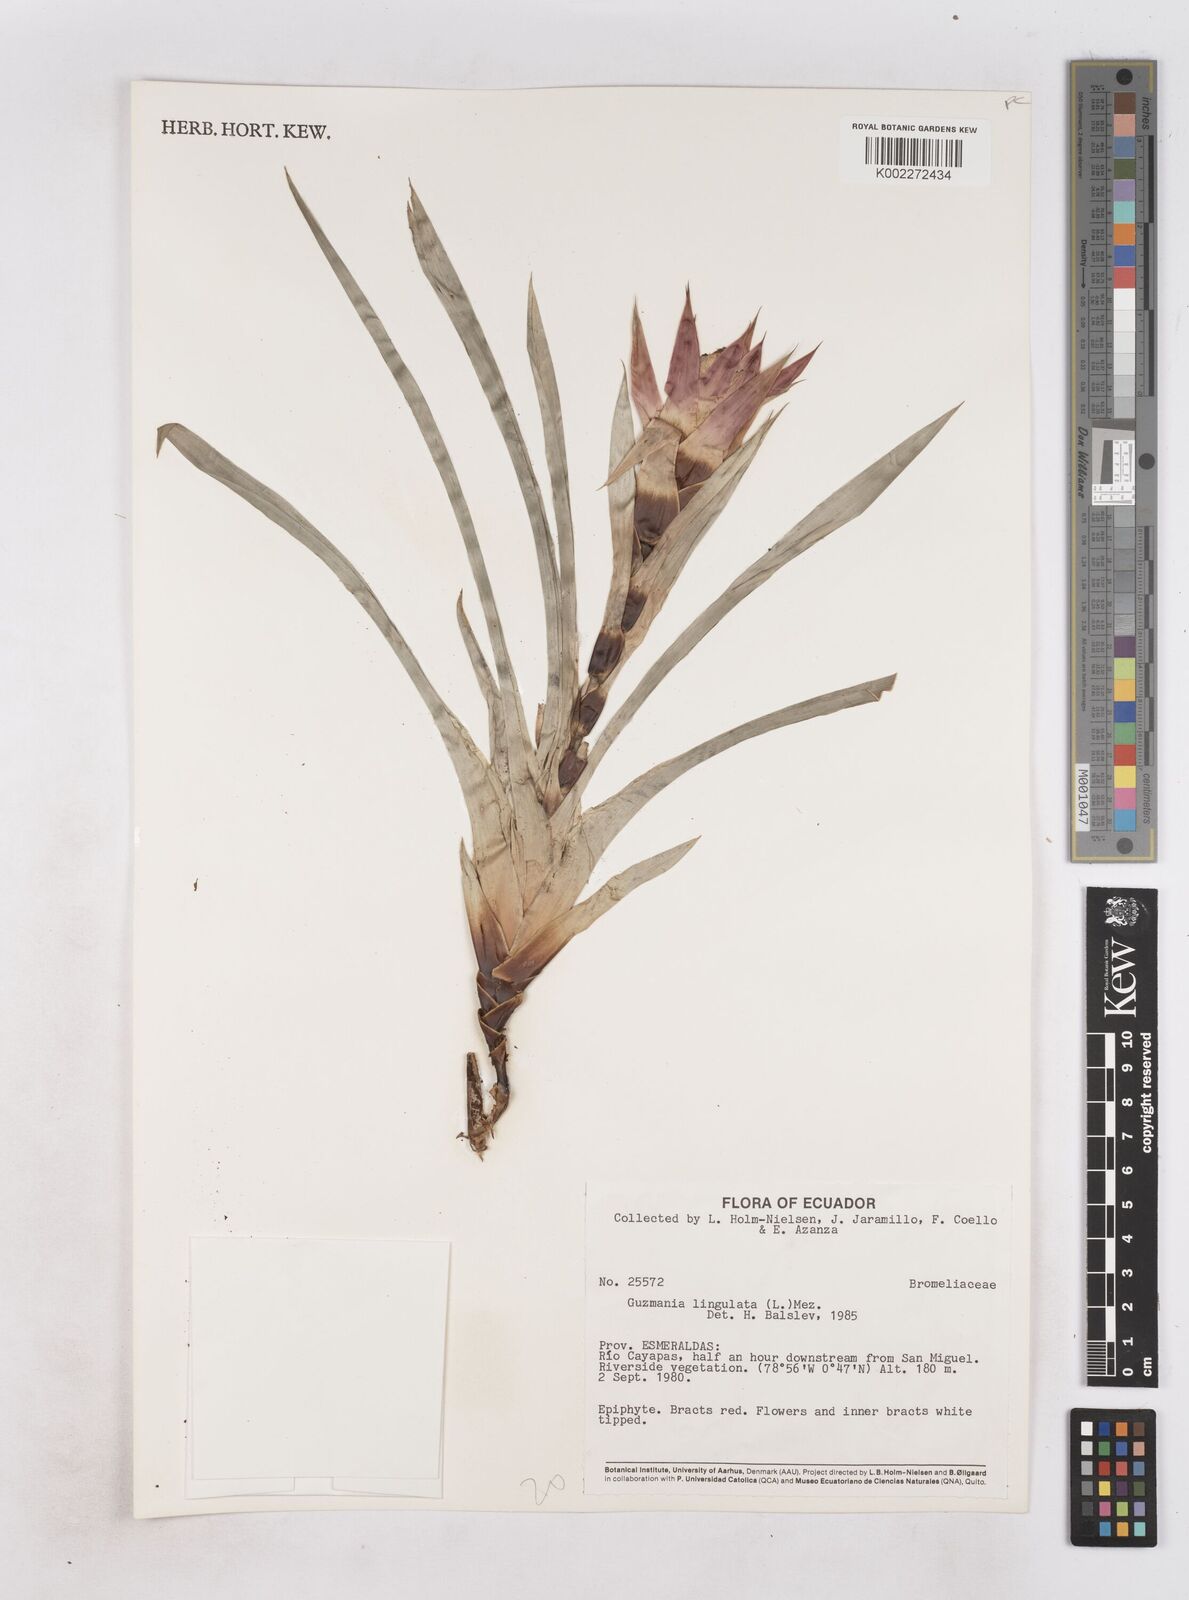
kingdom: Plantae
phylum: Tracheophyta
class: Liliopsida
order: Poales
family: Bromeliaceae
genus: Guzmania
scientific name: Guzmania lingulata
